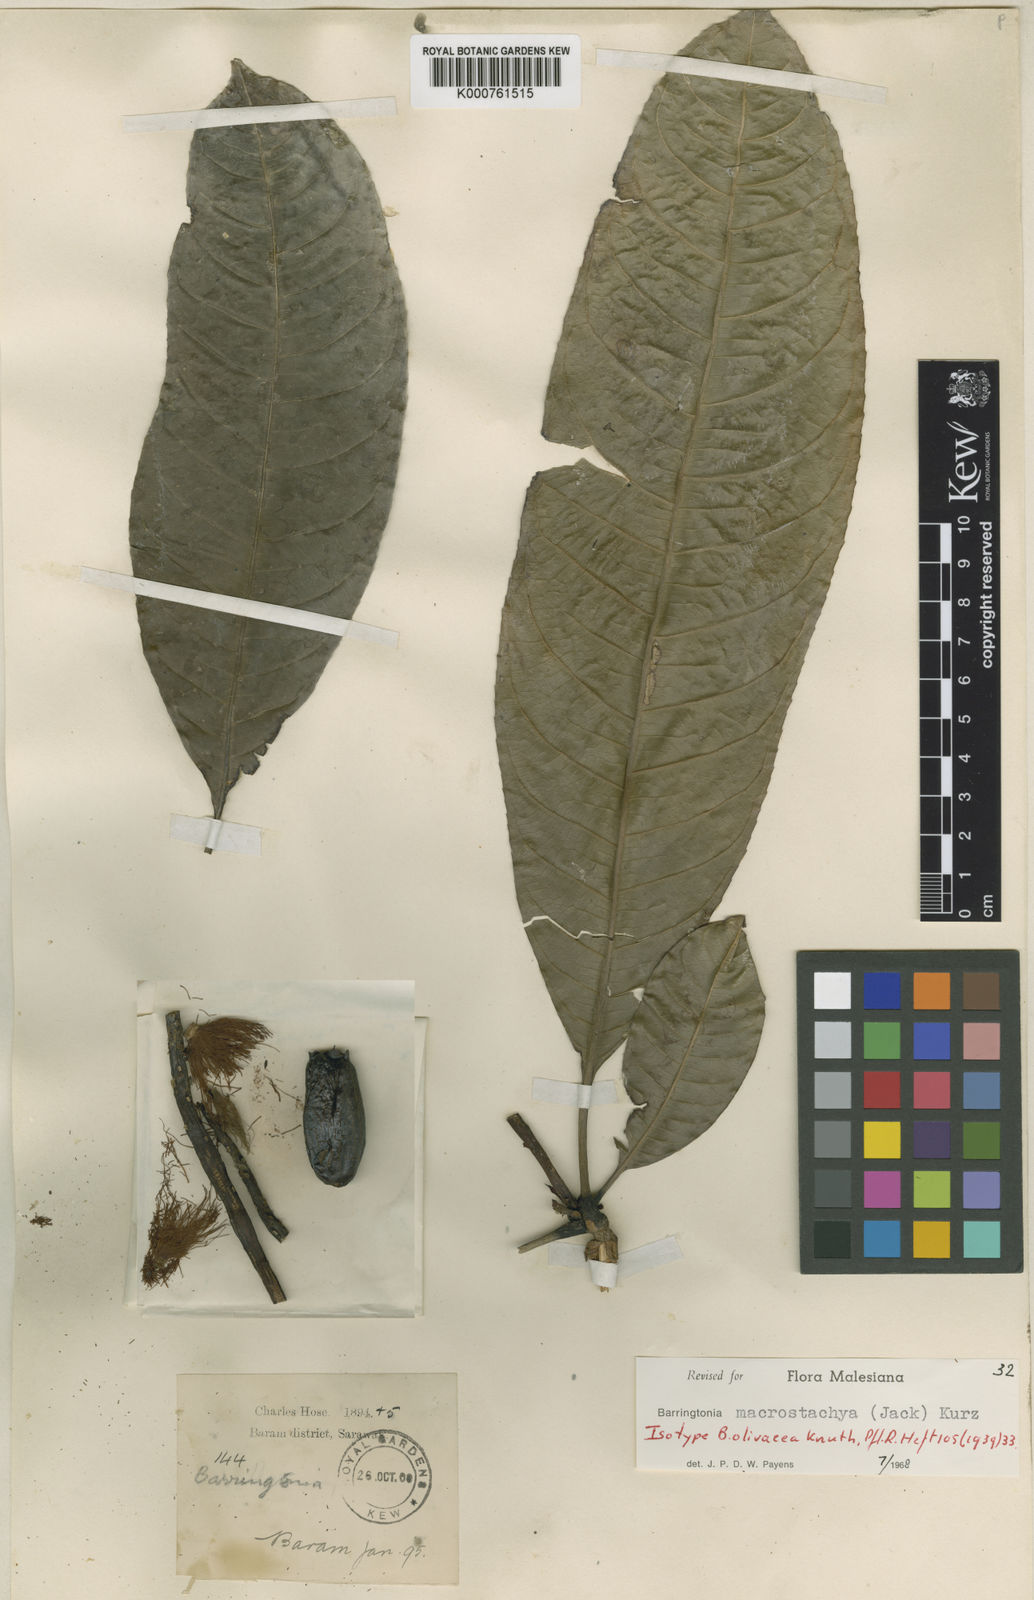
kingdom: Plantae
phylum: Tracheophyta
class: Magnoliopsida
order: Ericales
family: Lecythidaceae
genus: Barringtonia
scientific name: Barringtonia macrostachya
